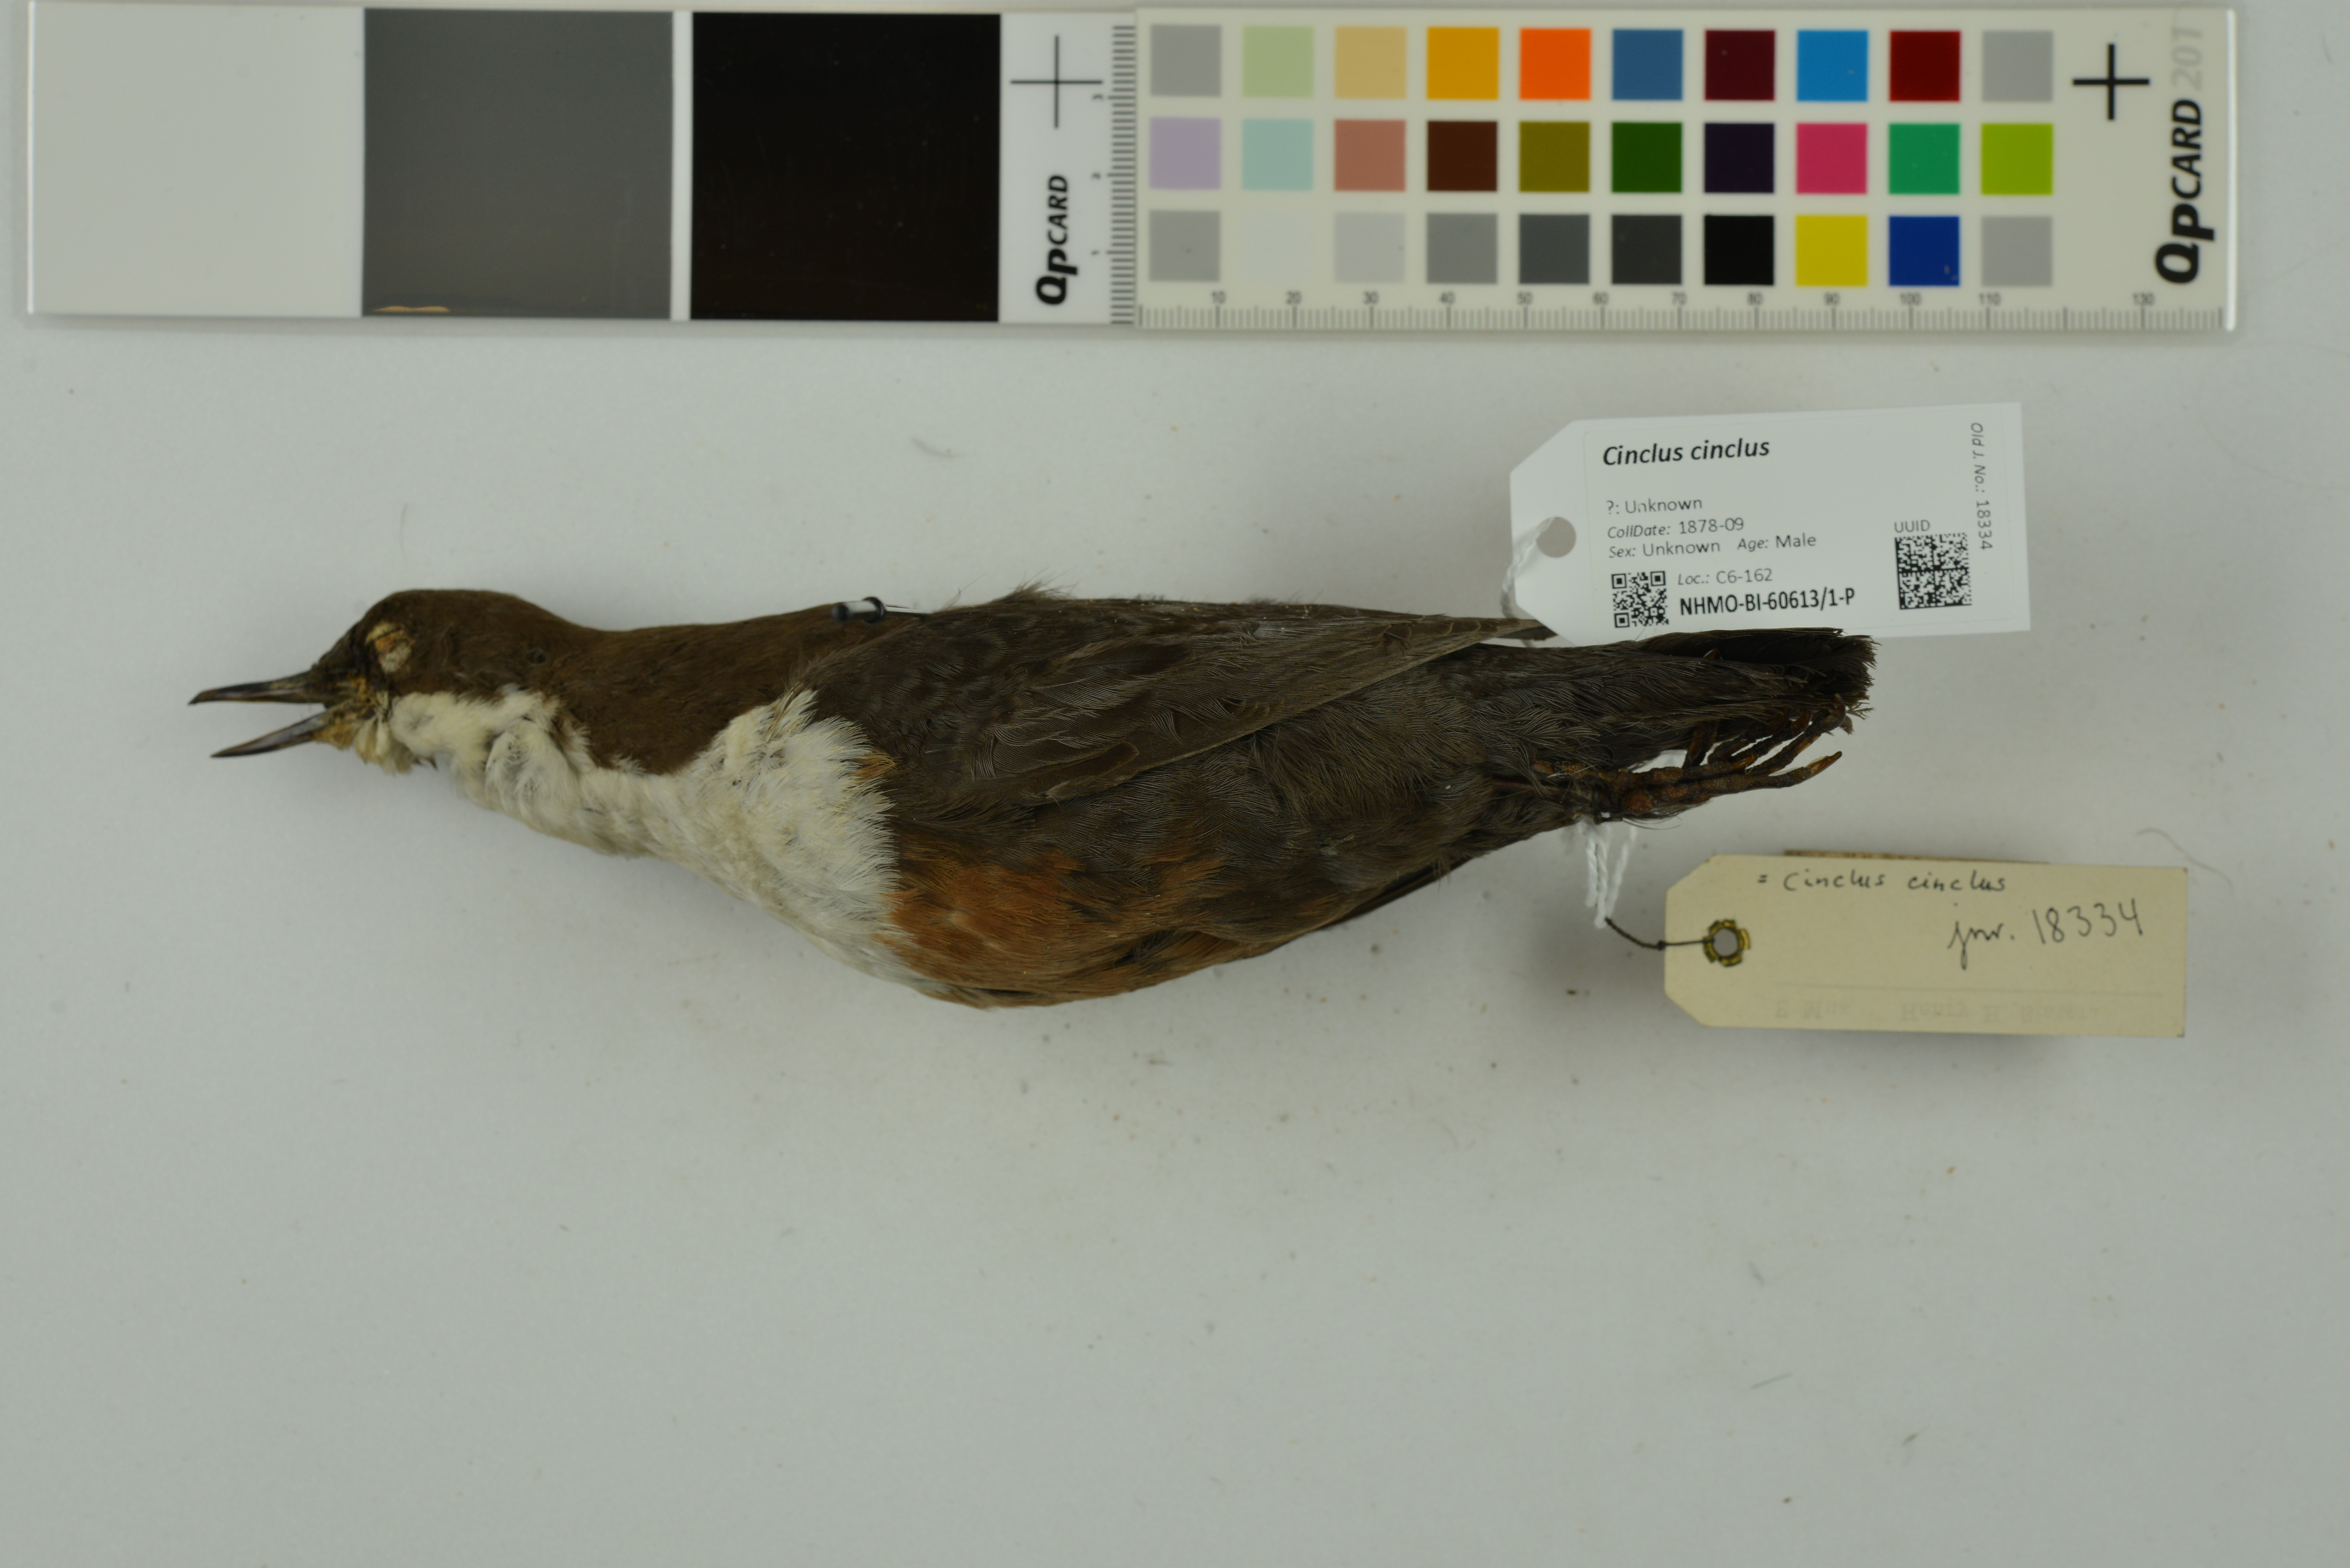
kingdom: Animalia
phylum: Chordata
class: Aves
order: Passeriformes
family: Cinclidae
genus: Cinclus
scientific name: Cinclus cinclus
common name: White-throated dipper
